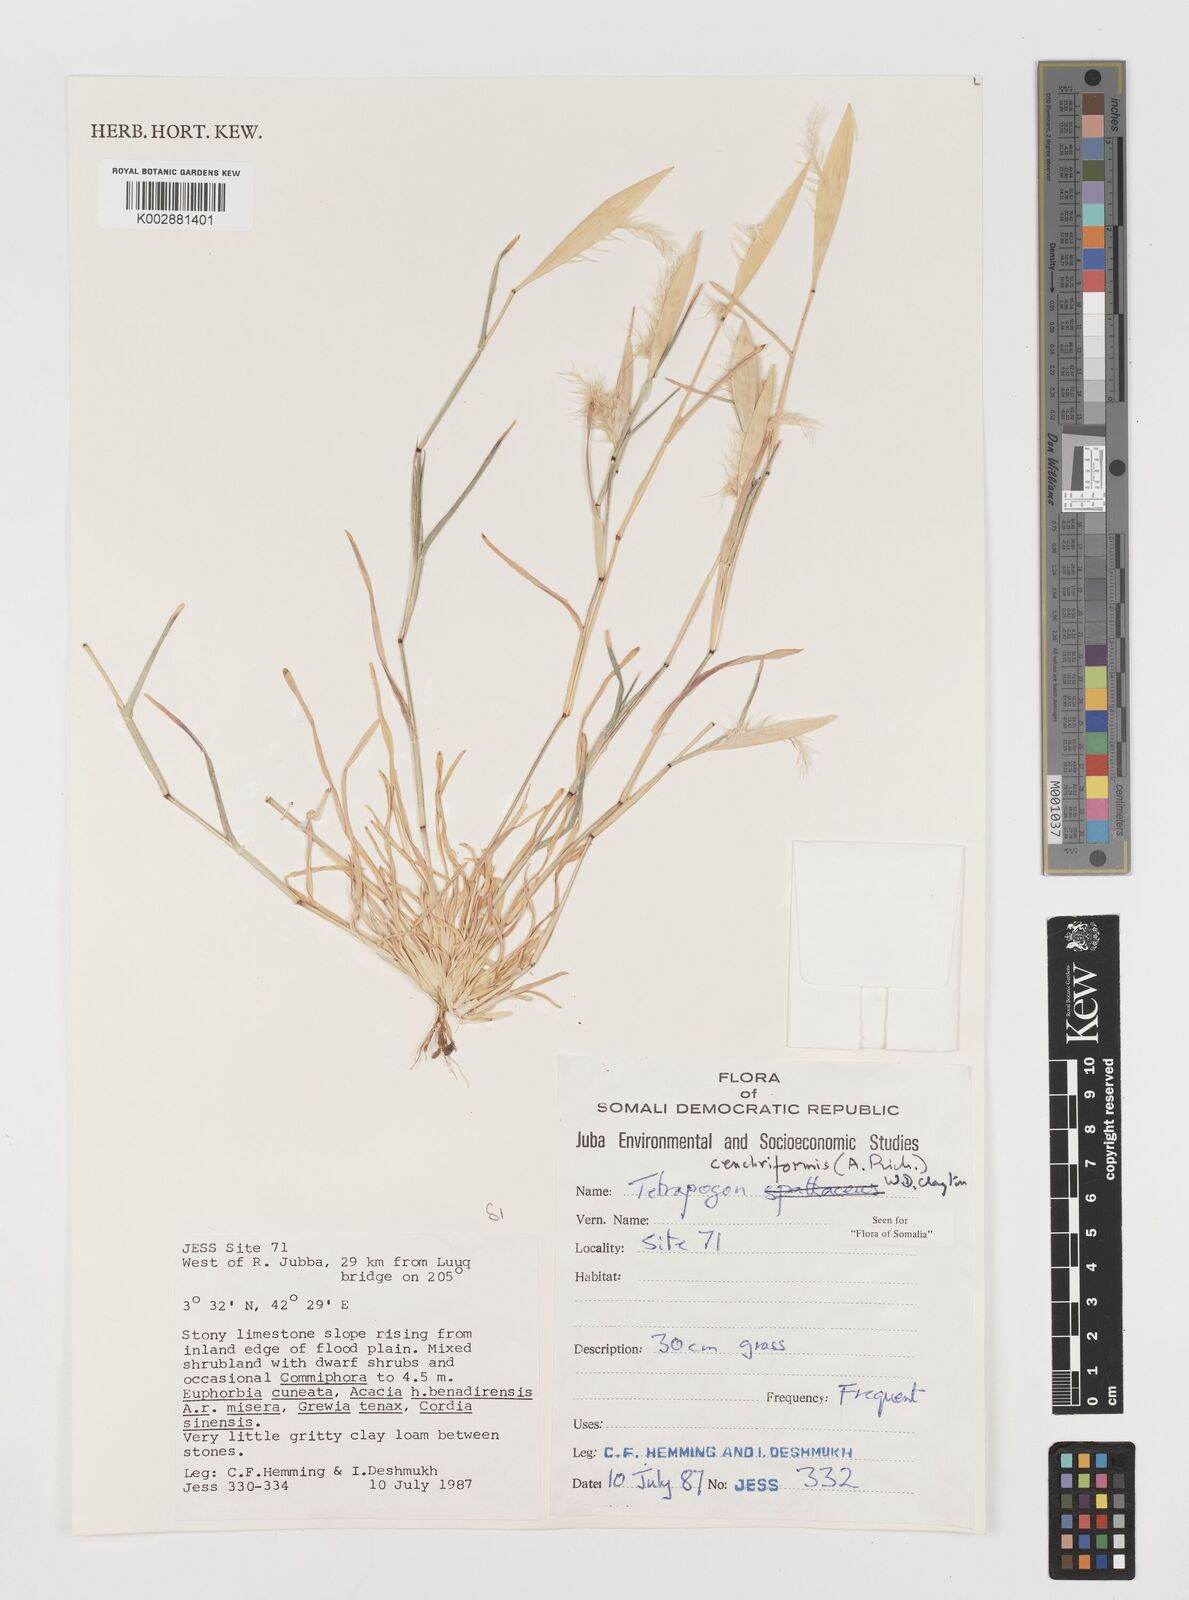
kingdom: Plantae
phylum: Tracheophyta
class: Liliopsida
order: Poales
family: Poaceae
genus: Tetrapogon
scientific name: Tetrapogon cenchriformis
